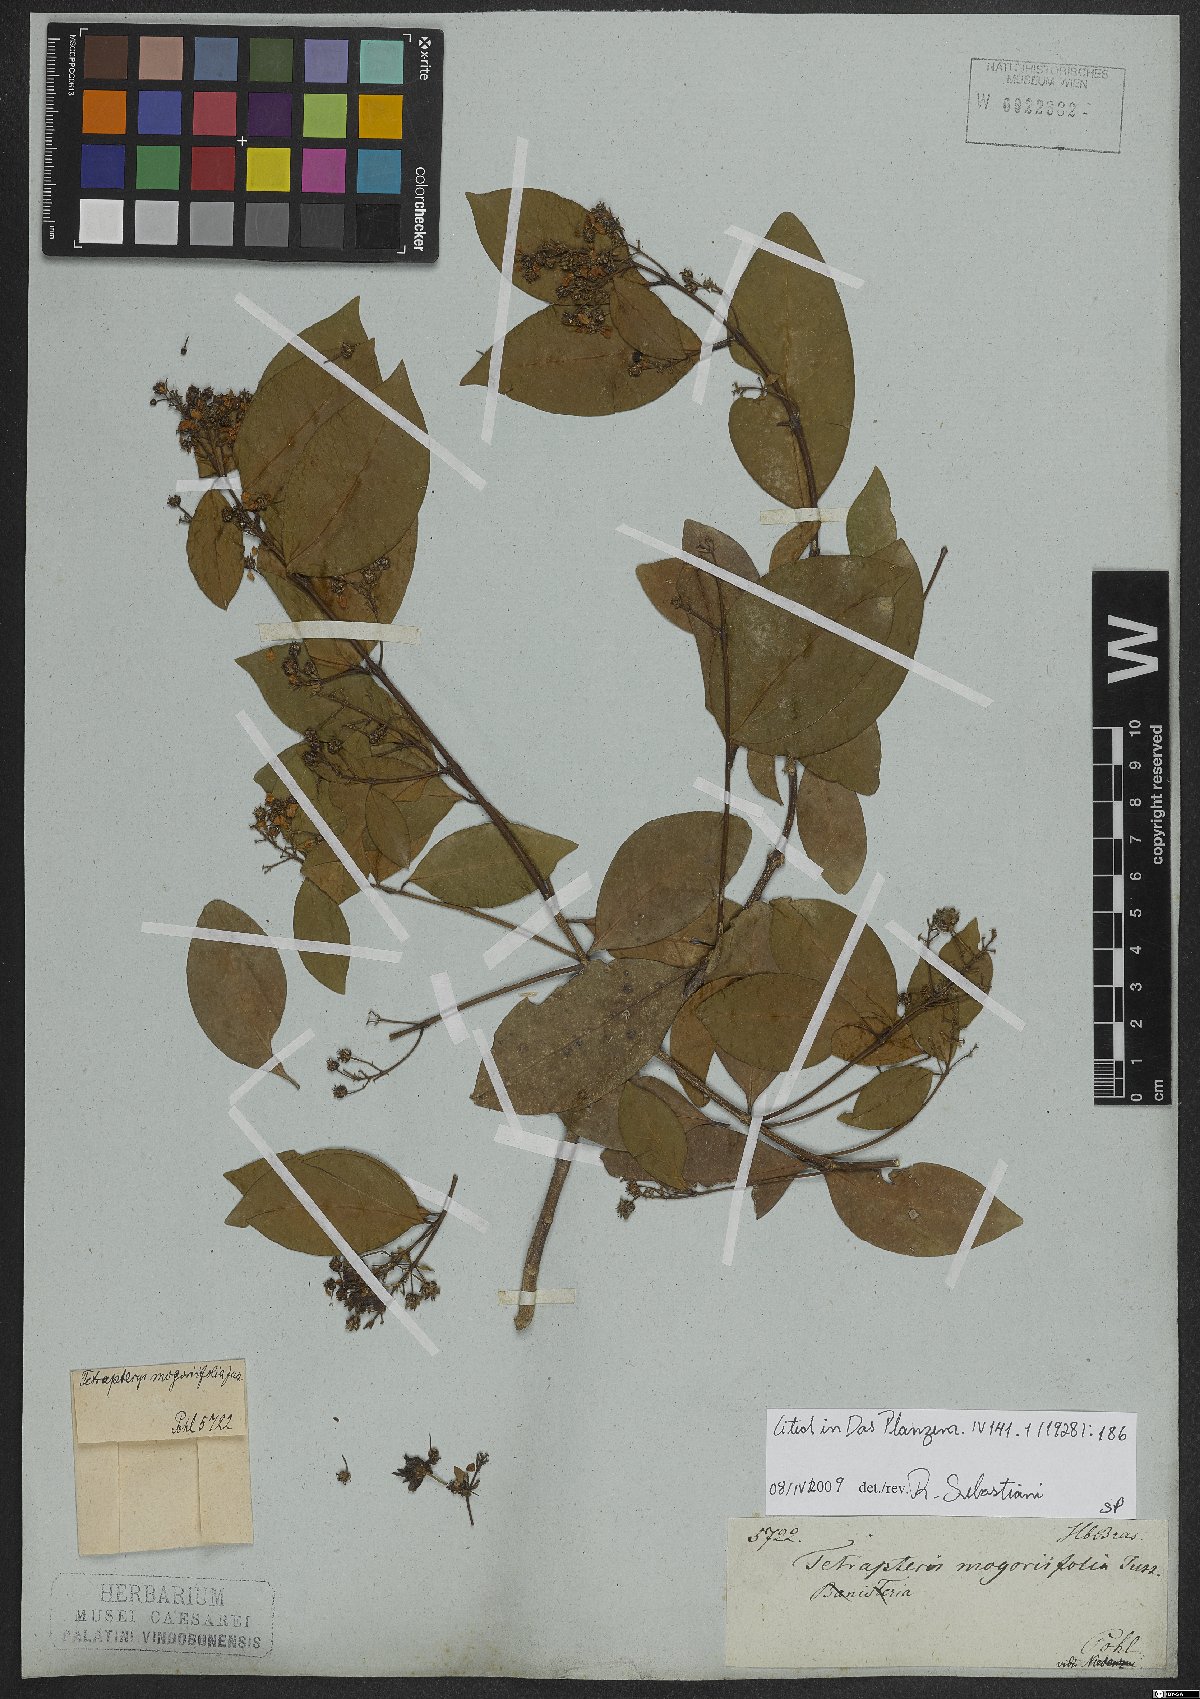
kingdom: Plantae
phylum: Tracheophyta
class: Magnoliopsida
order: Malpighiales
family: Malpighiaceae
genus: Niedenzuella
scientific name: Niedenzuella mogoriifolia
